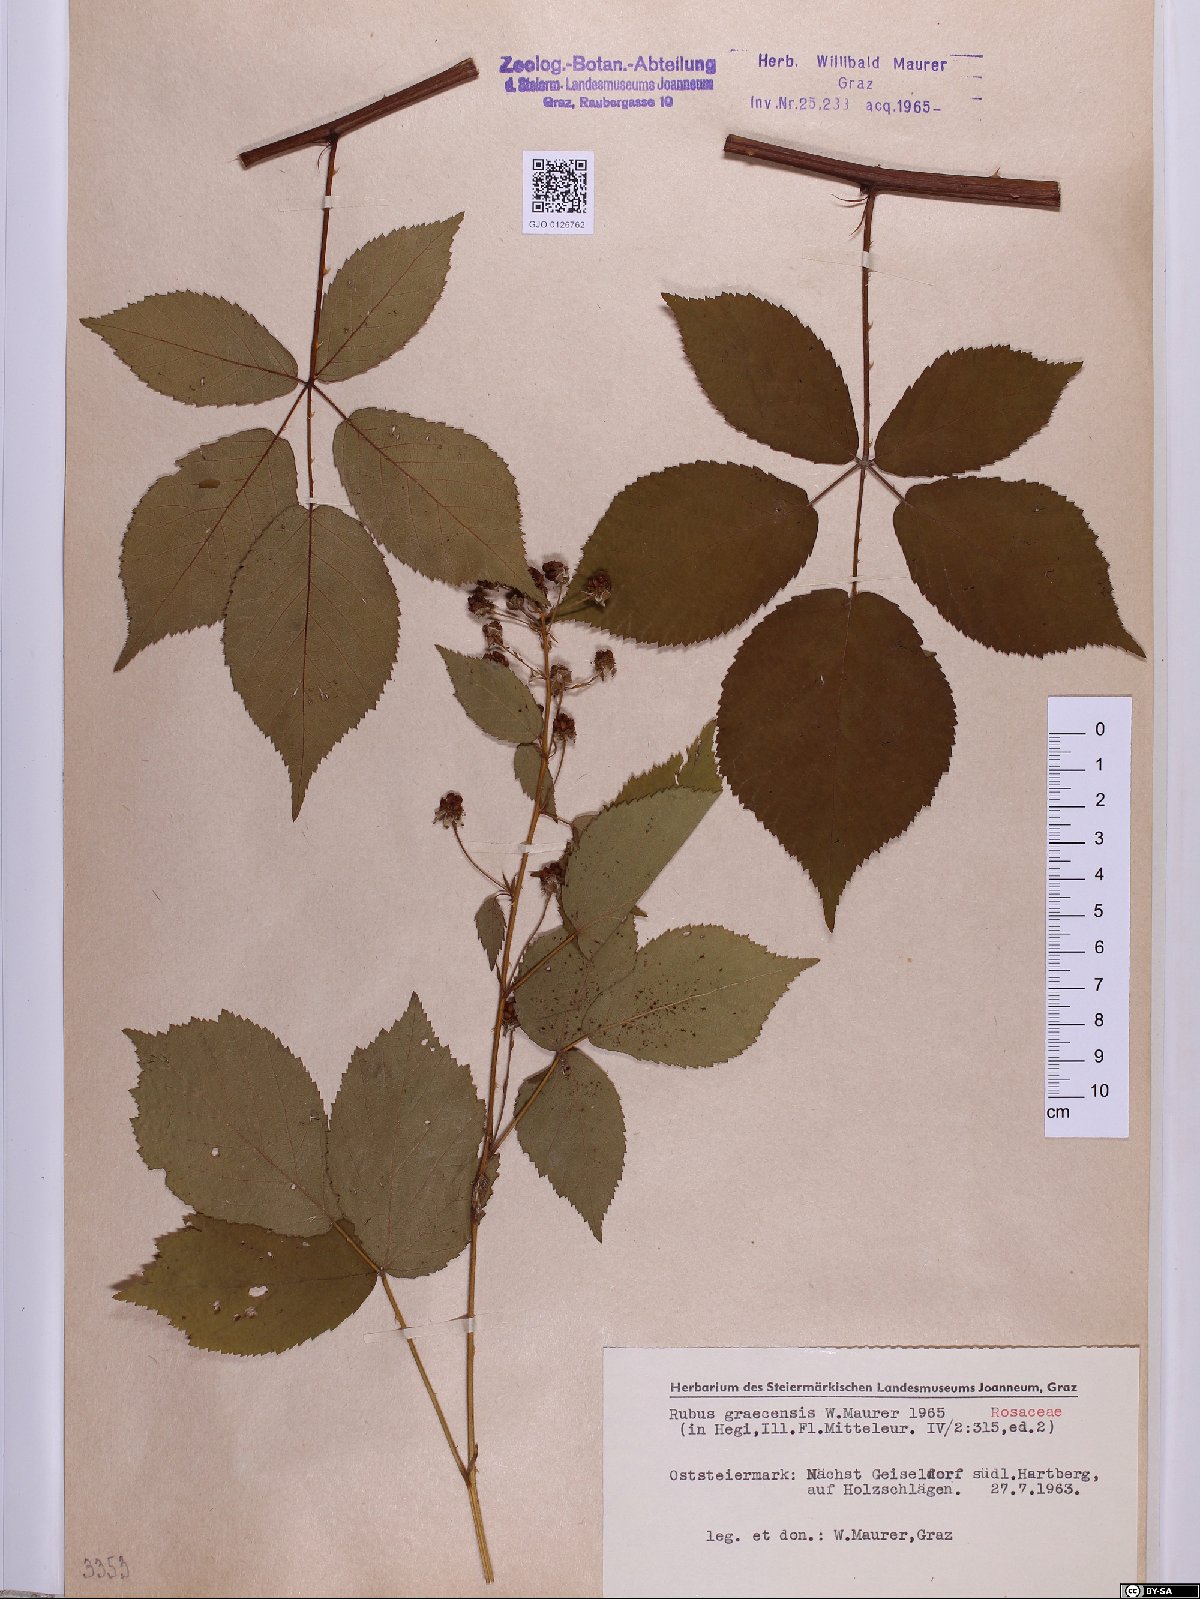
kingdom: Plantae
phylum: Tracheophyta
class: Magnoliopsida
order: Rosales
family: Rosaceae
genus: Rubus
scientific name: Rubus graecensis
